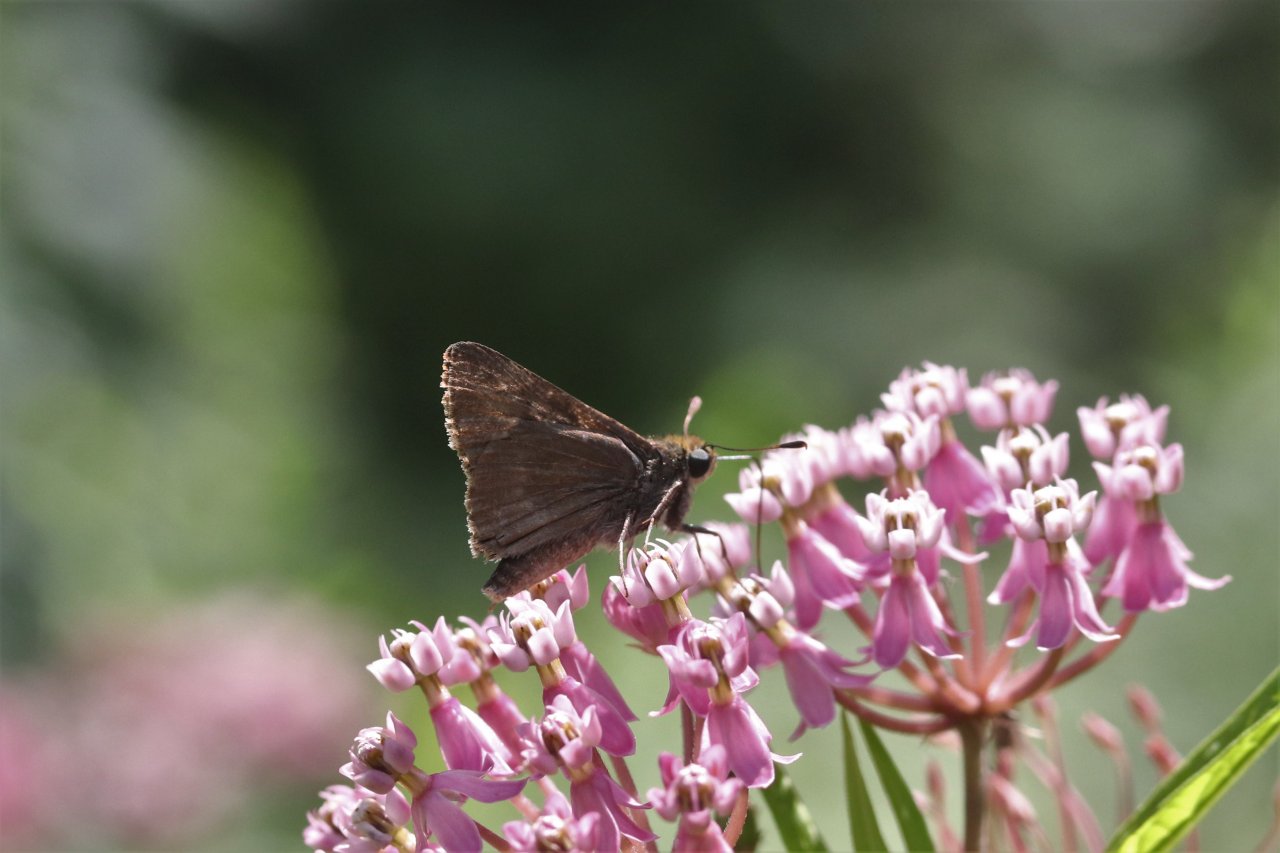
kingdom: Animalia
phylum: Arthropoda
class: Insecta
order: Lepidoptera
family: Hesperiidae
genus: Polites
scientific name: Polites egeremet
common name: Northern Broken-Dash
